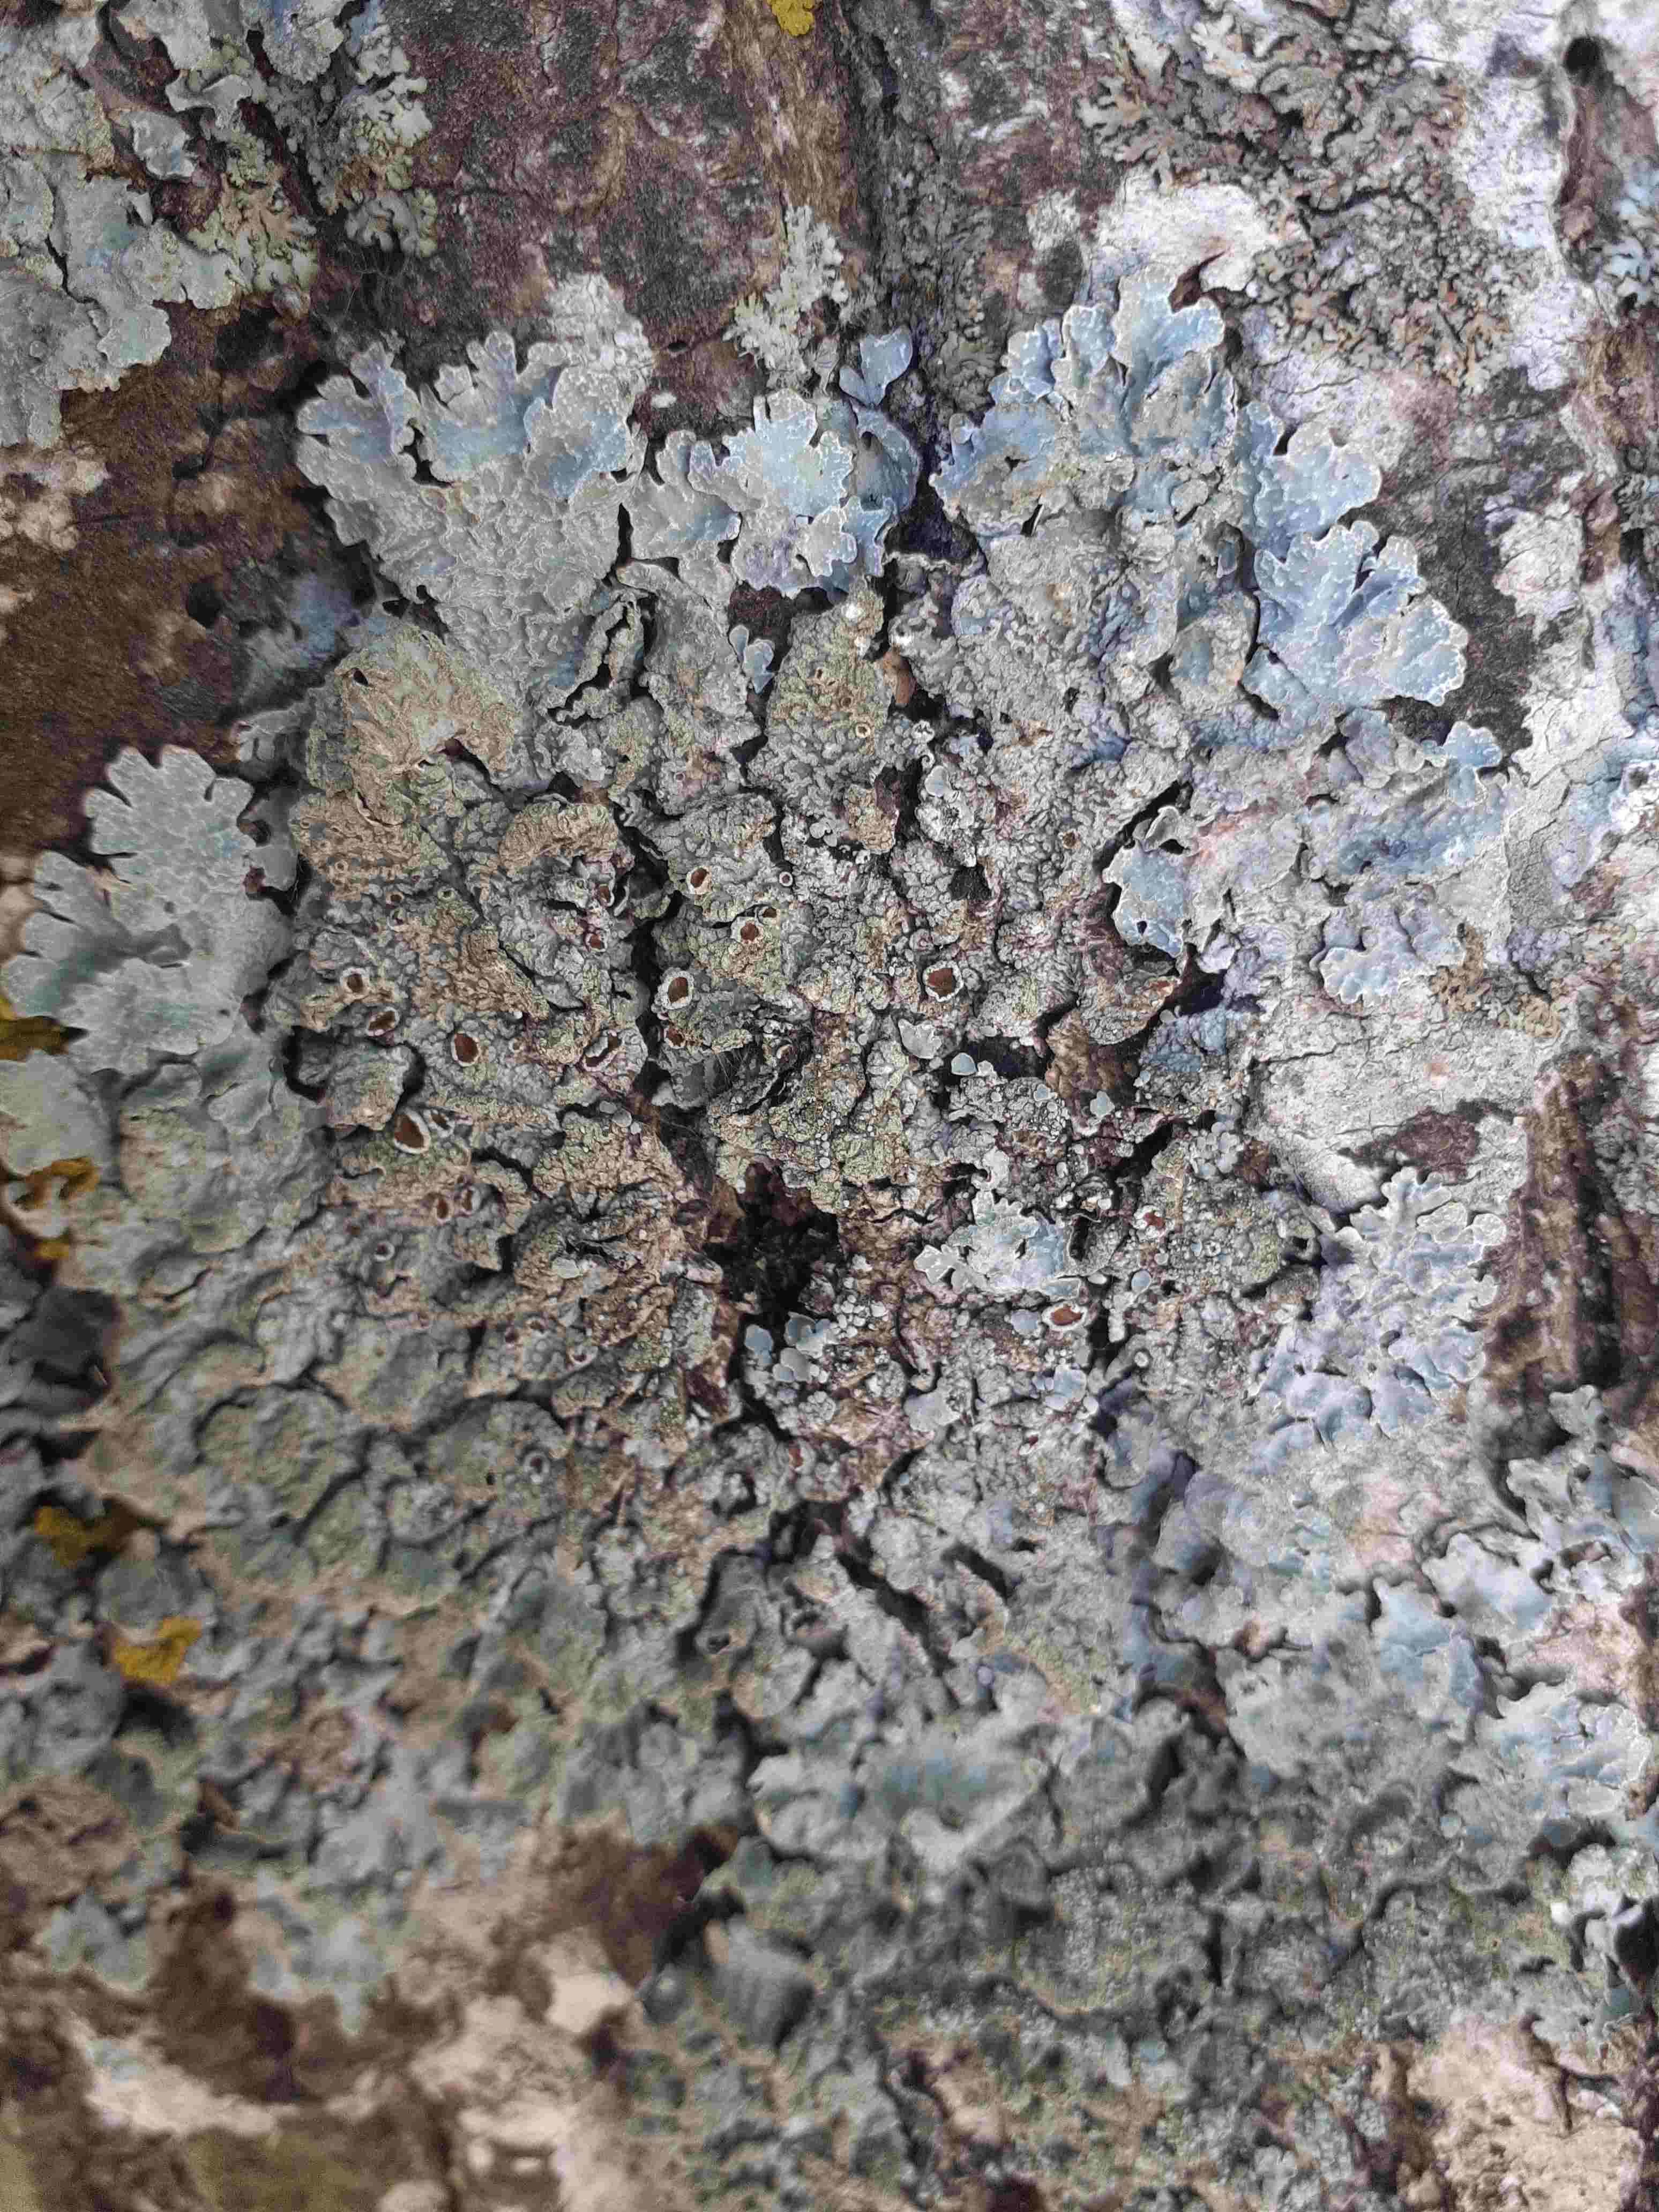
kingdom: Fungi
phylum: Ascomycota
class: Lecanoromycetes
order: Lecanorales
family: Parmeliaceae
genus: Parmelia
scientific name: Parmelia sulcata
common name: rynket skållav
